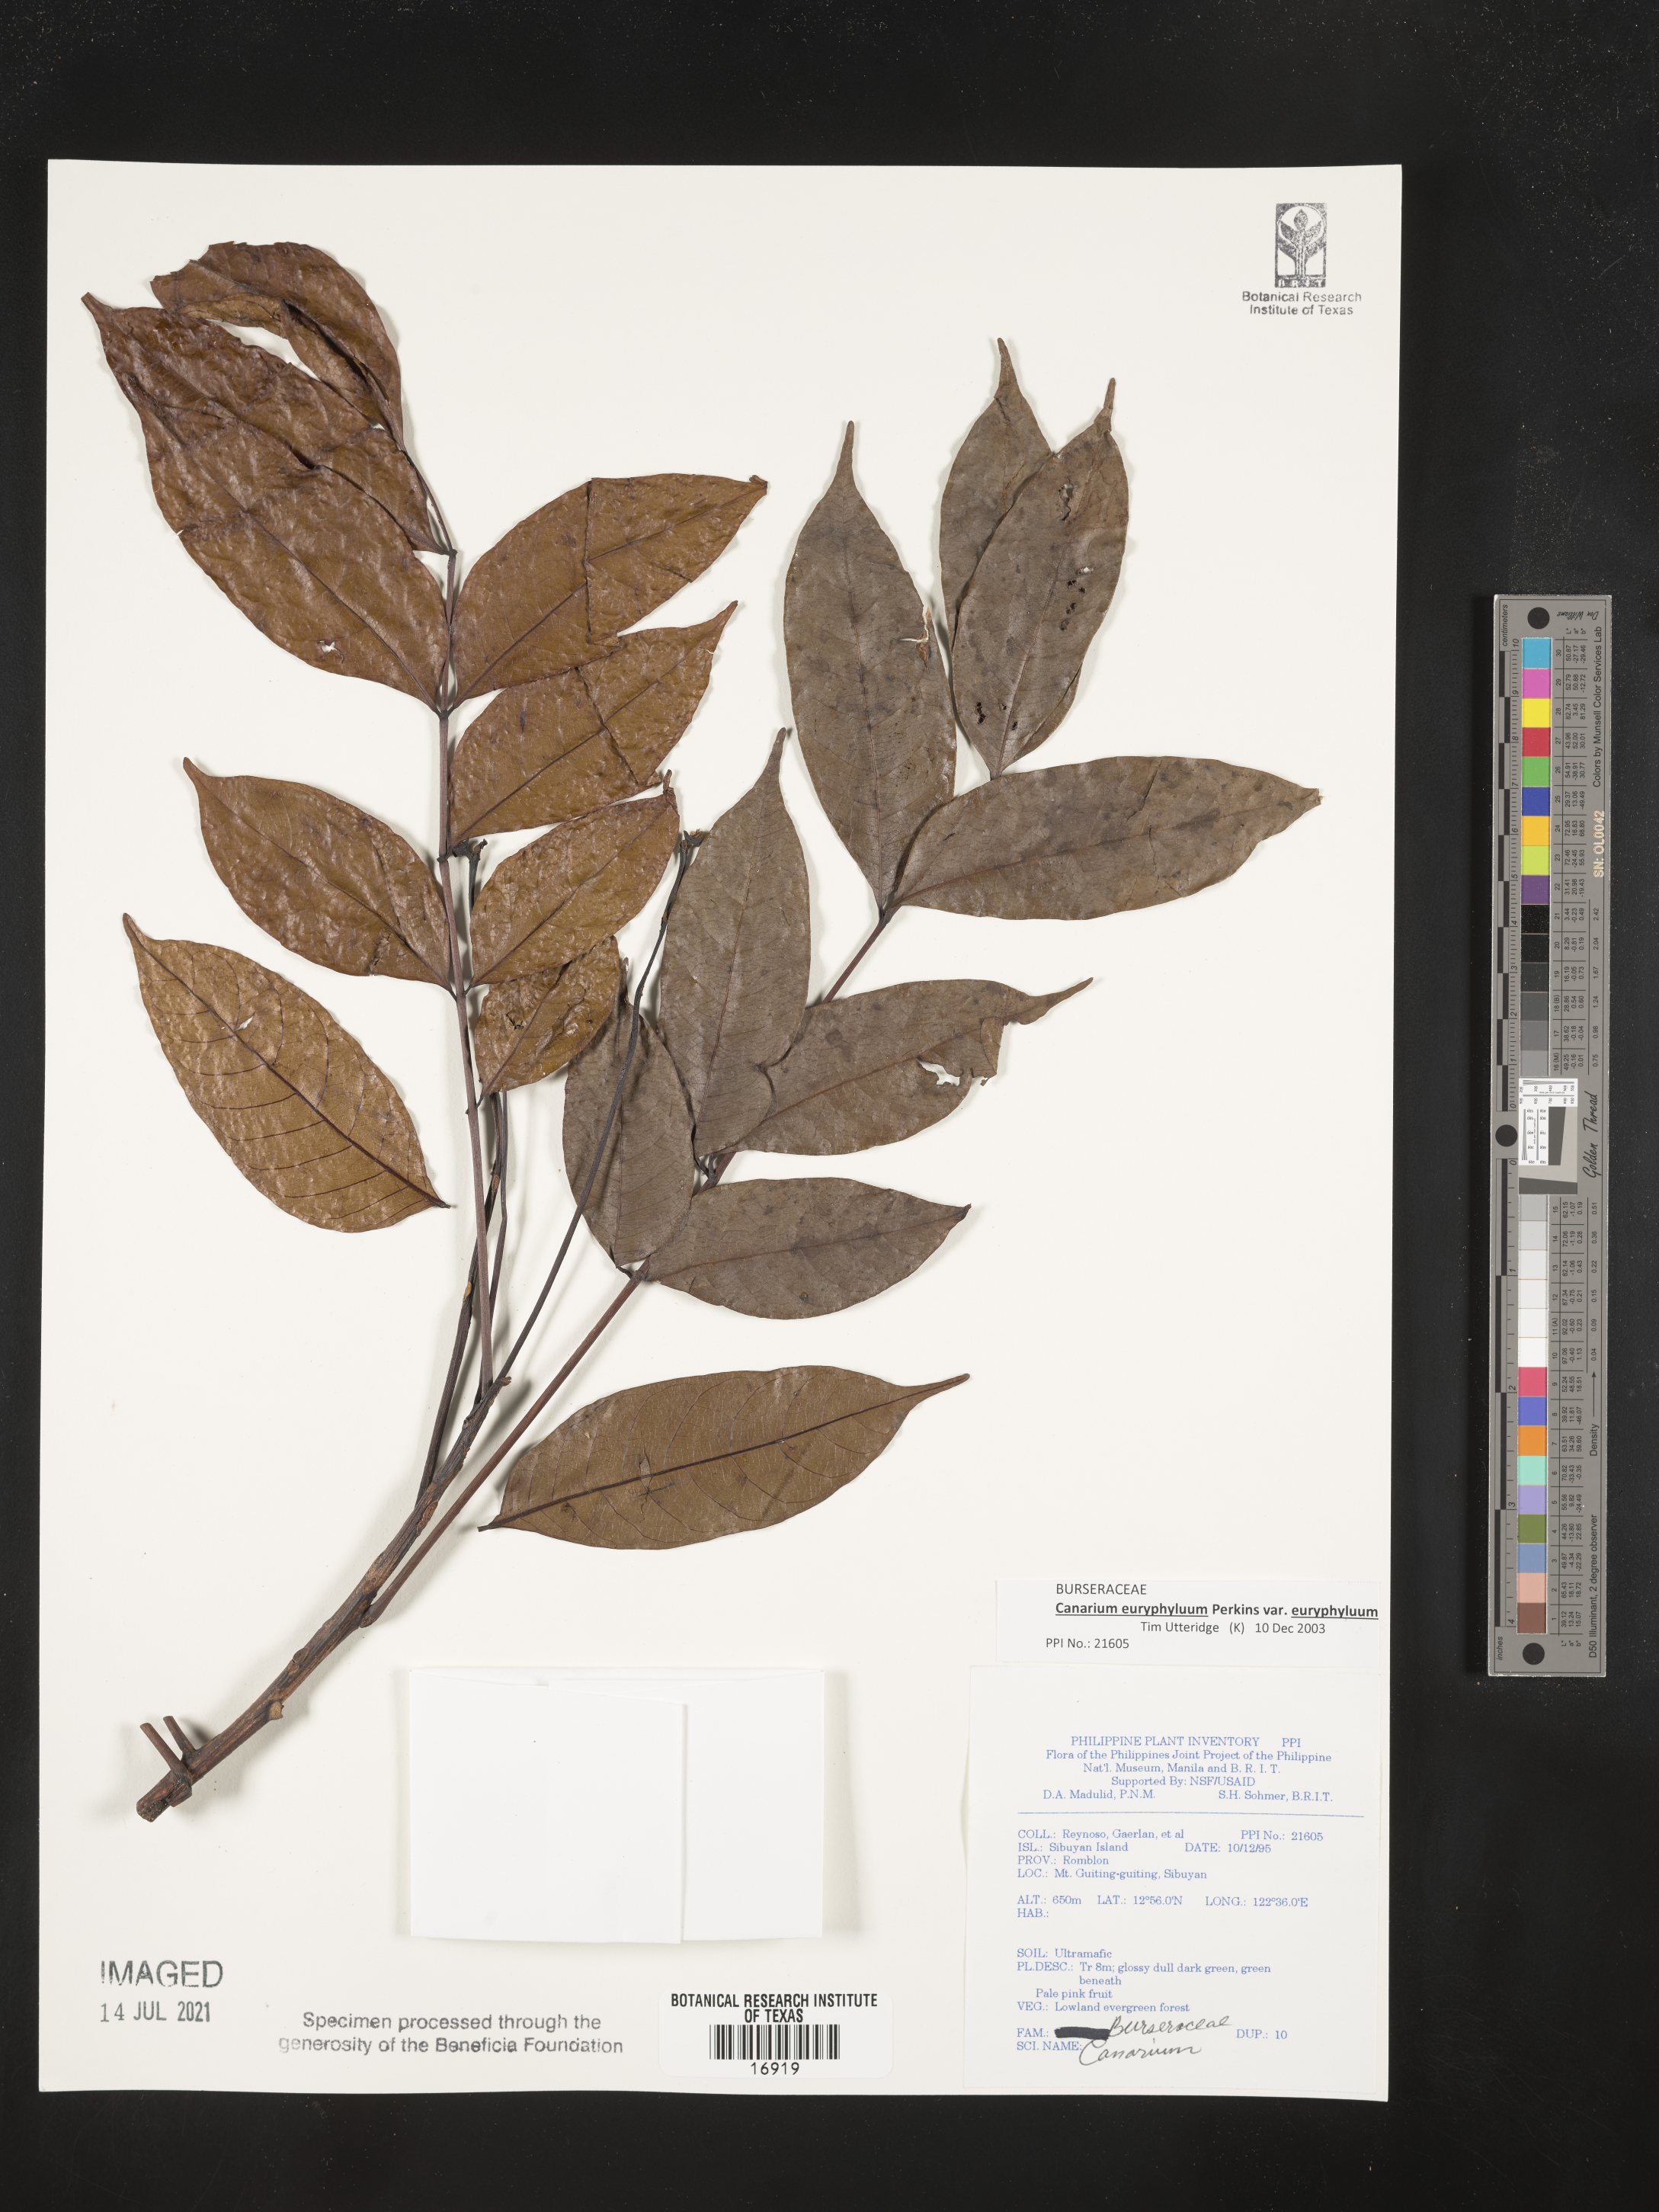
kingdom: Plantae
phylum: Tracheophyta
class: Magnoliopsida
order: Sapindales
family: Burseraceae
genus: Canarium
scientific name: Canarium
